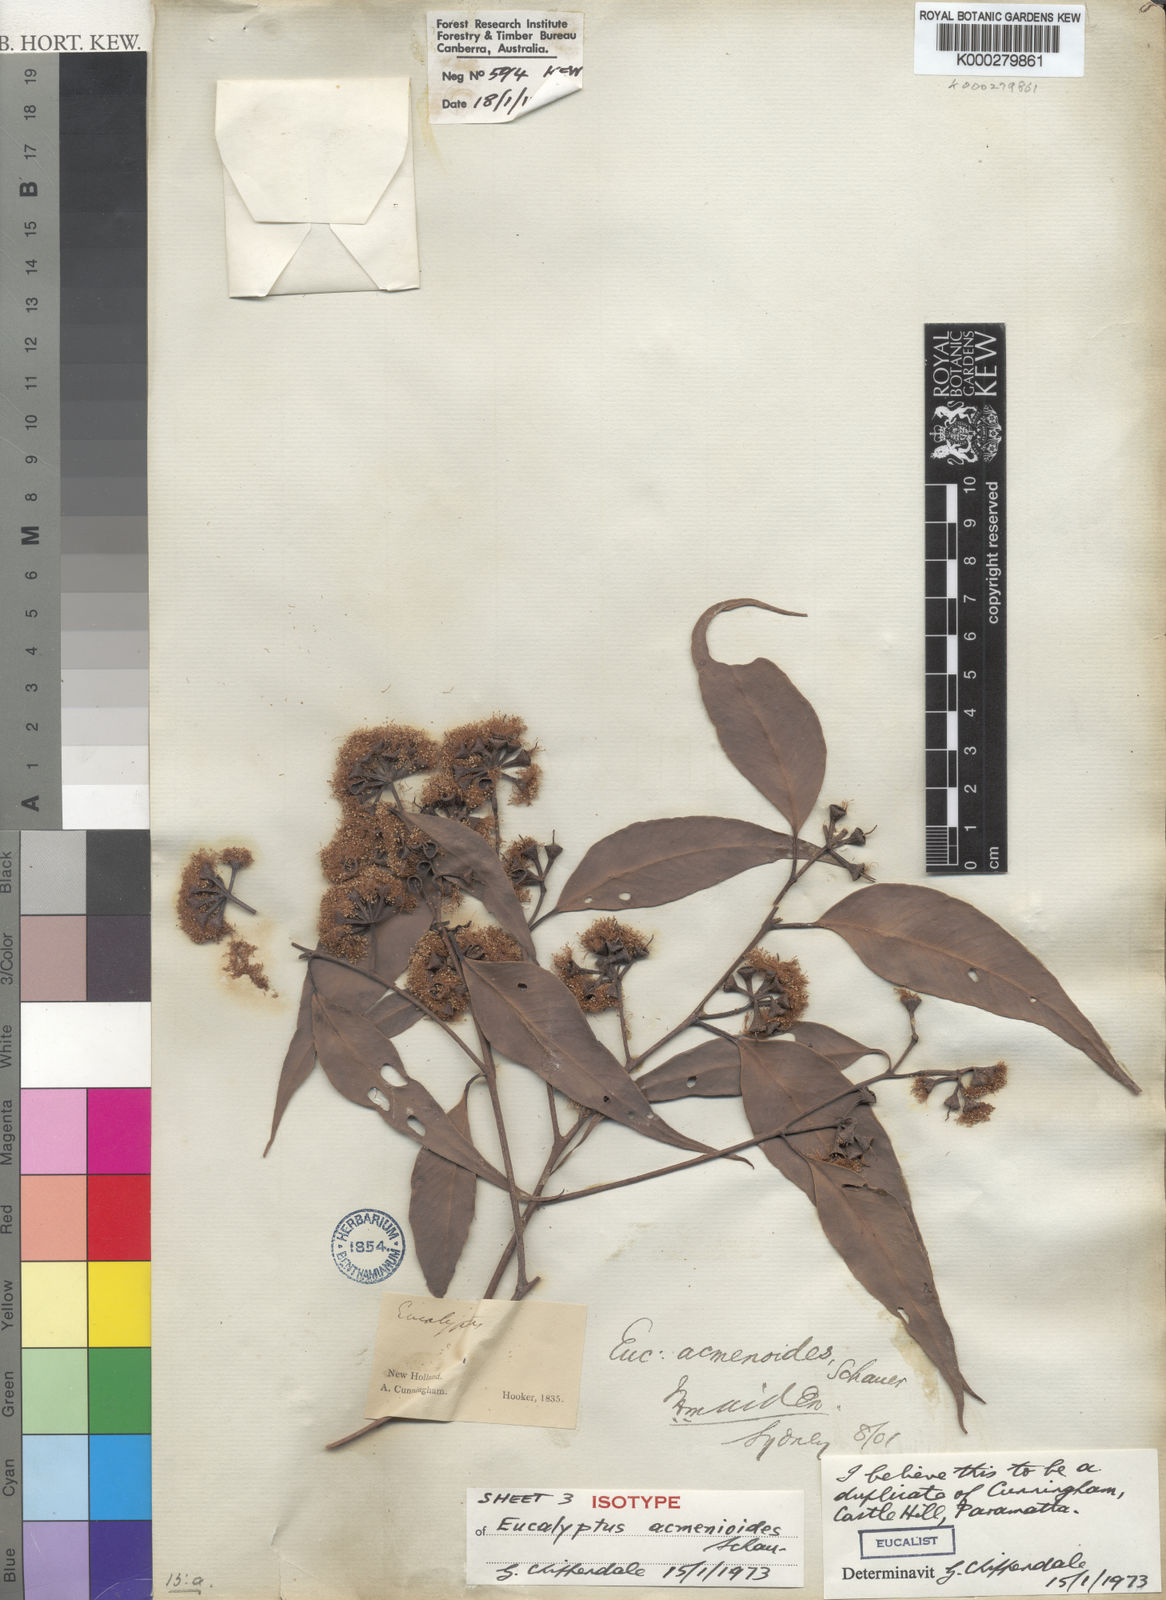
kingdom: Plantae
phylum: Tracheophyta
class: Magnoliopsida
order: Myrtales
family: Myrtaceae
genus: Eucalyptus
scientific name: Eucalyptus acmenoides
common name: White-mahogany
